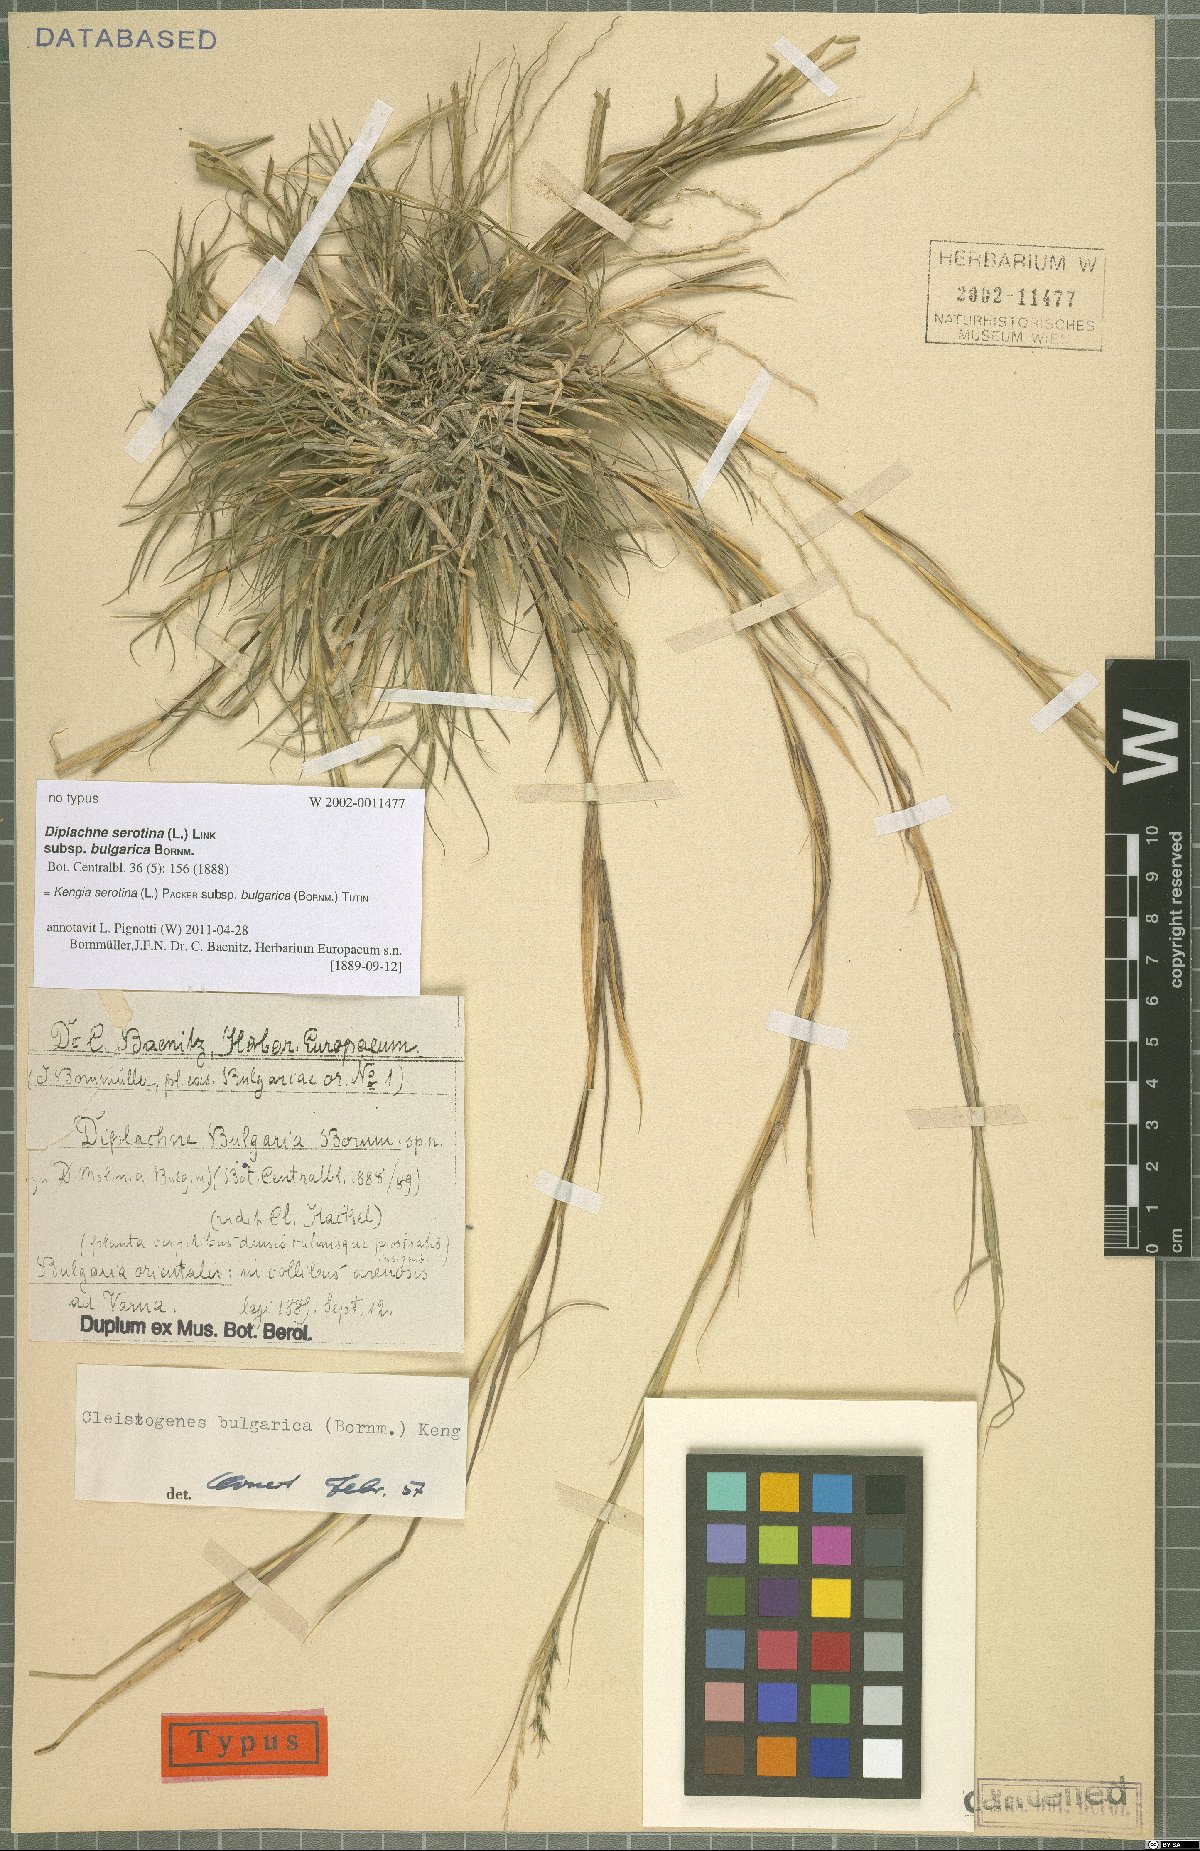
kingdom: Plantae
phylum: Tracheophyta
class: Liliopsida
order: Poales
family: Poaceae
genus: Cleistogenes
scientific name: Cleistogenes serotina
